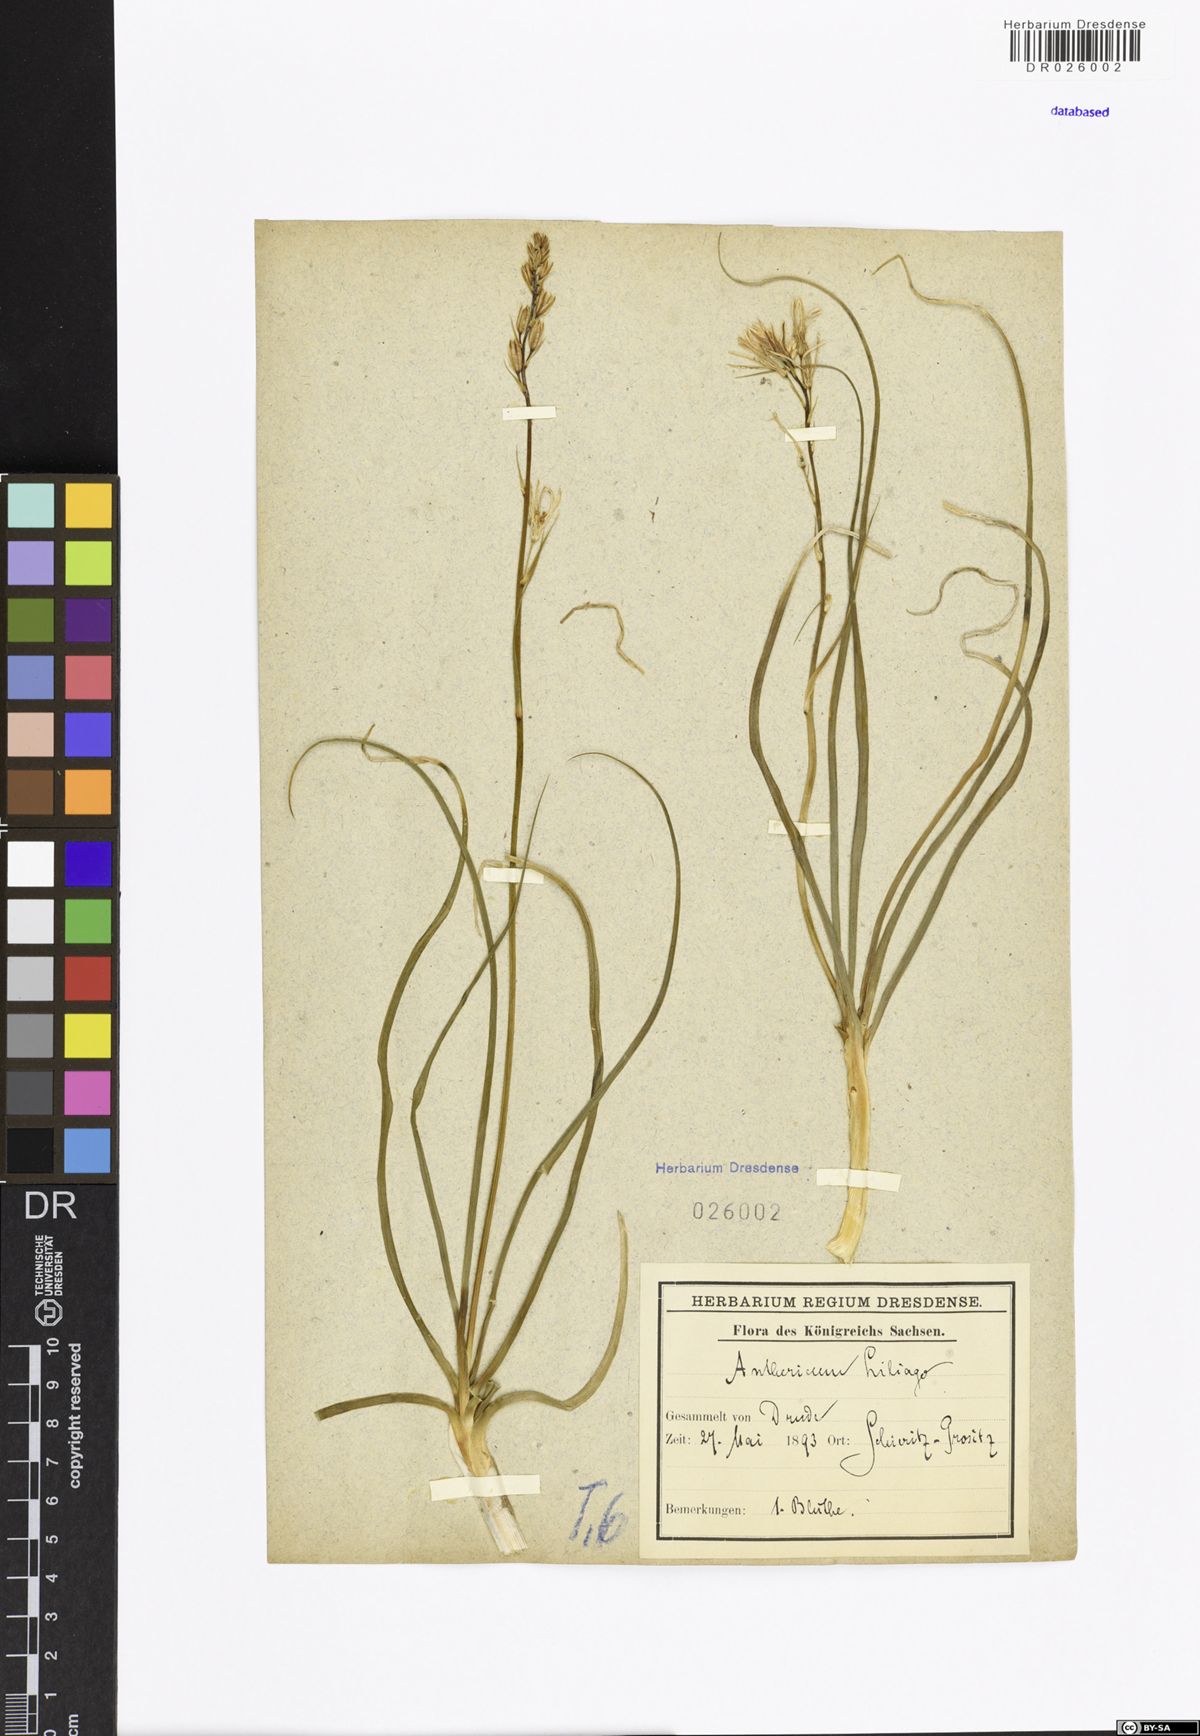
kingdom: Plantae
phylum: Tracheophyta
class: Liliopsida
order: Asparagales
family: Asparagaceae
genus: Anthericum
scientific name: Anthericum liliago
